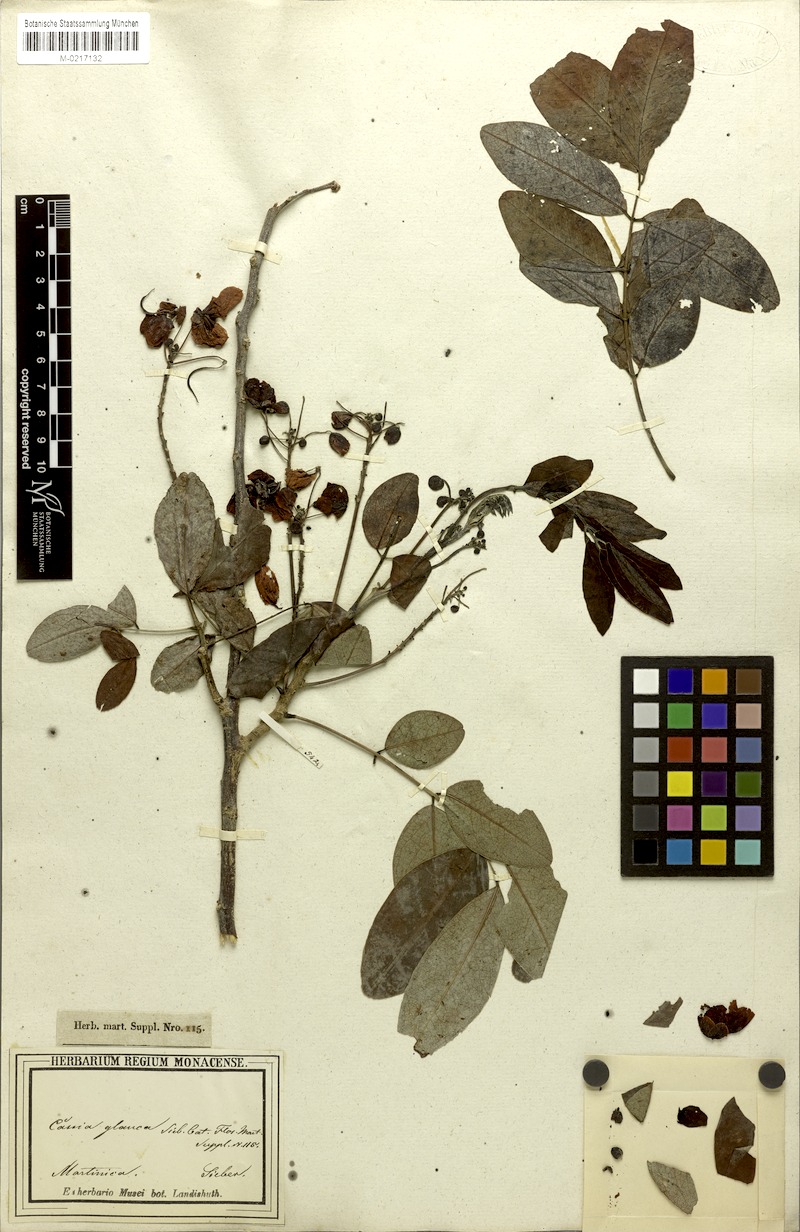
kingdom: Plantae
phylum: Tracheophyta
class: Magnoliopsida
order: Fabales
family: Fabaceae
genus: Senna
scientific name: Senna sulfurea
